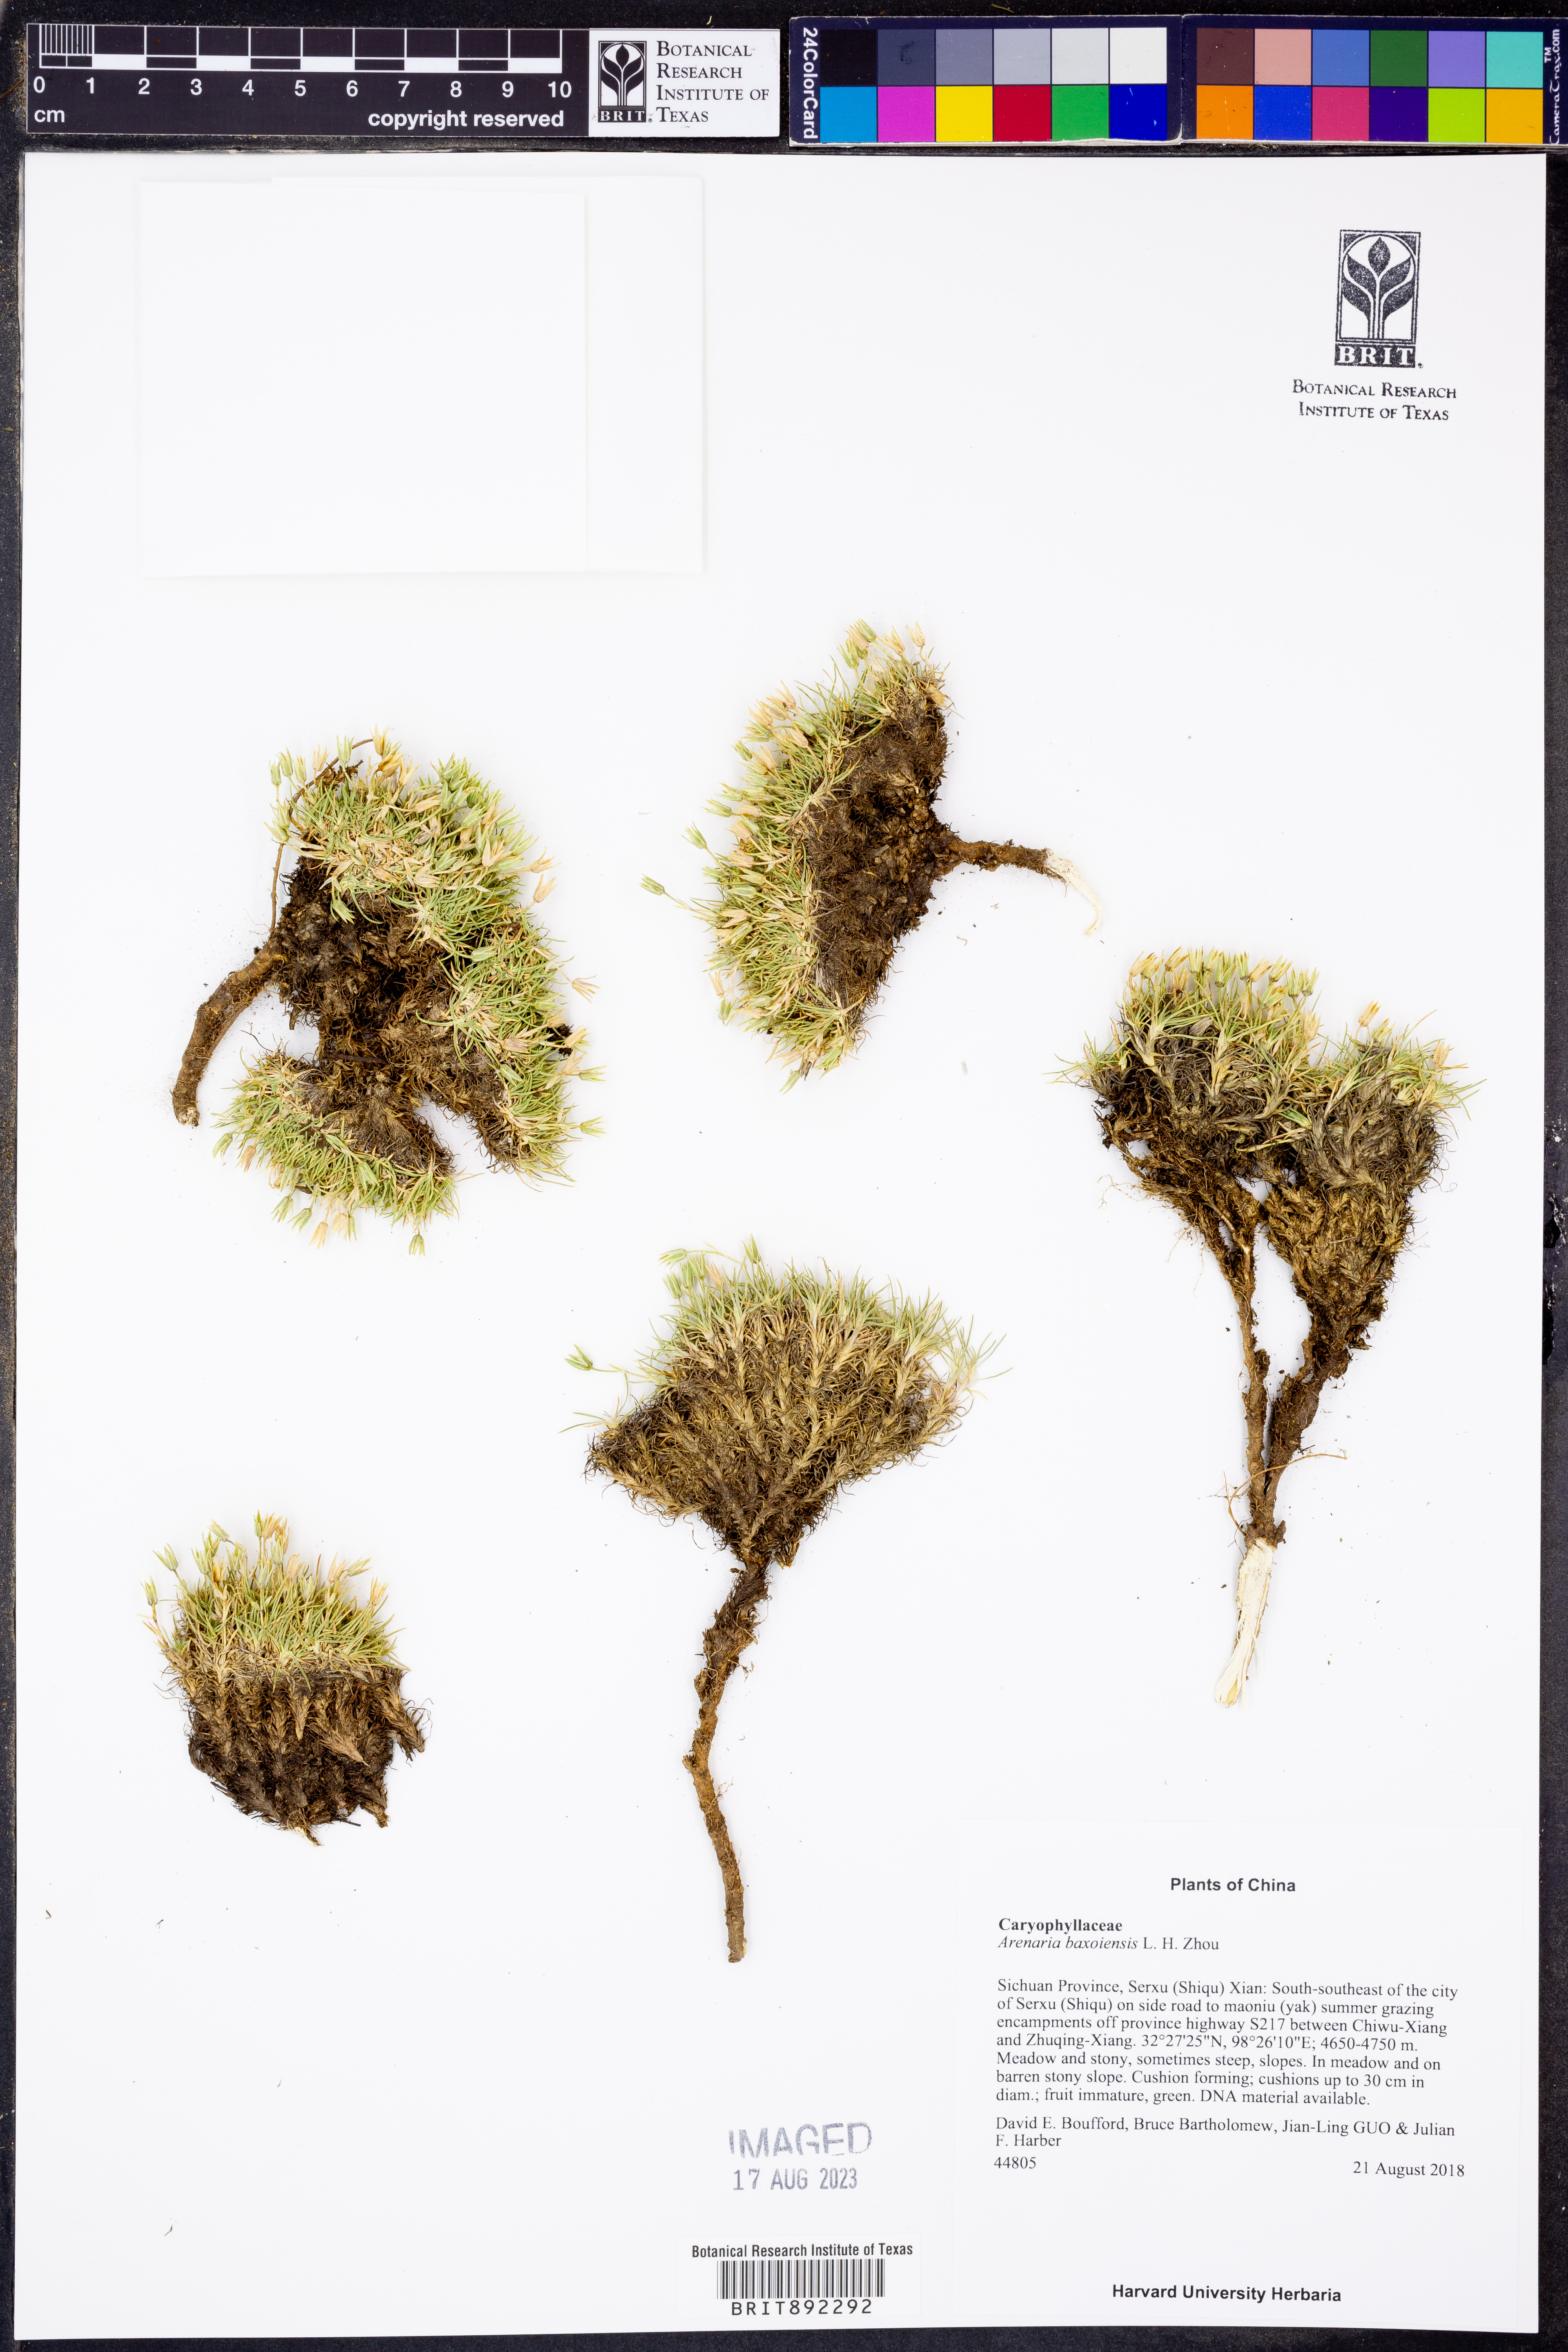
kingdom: Plantae
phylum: Tracheophyta
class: Magnoliopsida
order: Caryophyllales
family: Caryophyllaceae
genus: Eremogone
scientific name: Eremogone baxoiensis
